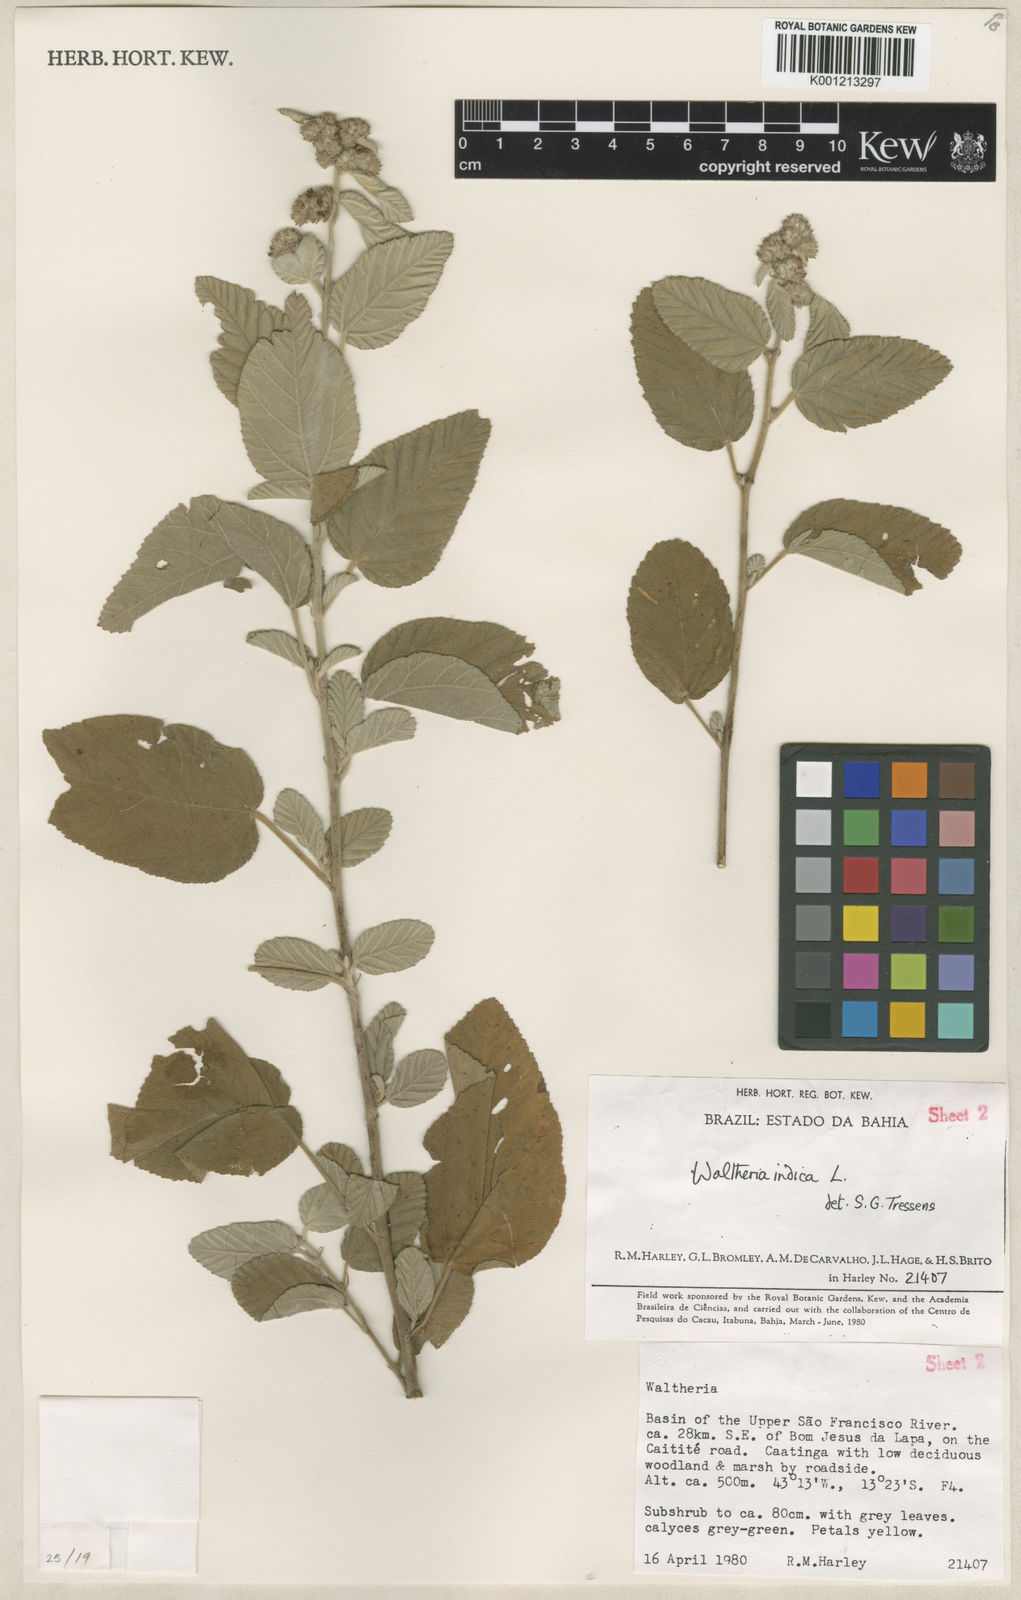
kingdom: Plantae
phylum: Tracheophyta
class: Magnoliopsida
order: Malvales
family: Malvaceae
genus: Waltheria
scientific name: Waltheria indica
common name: Leather-coat
